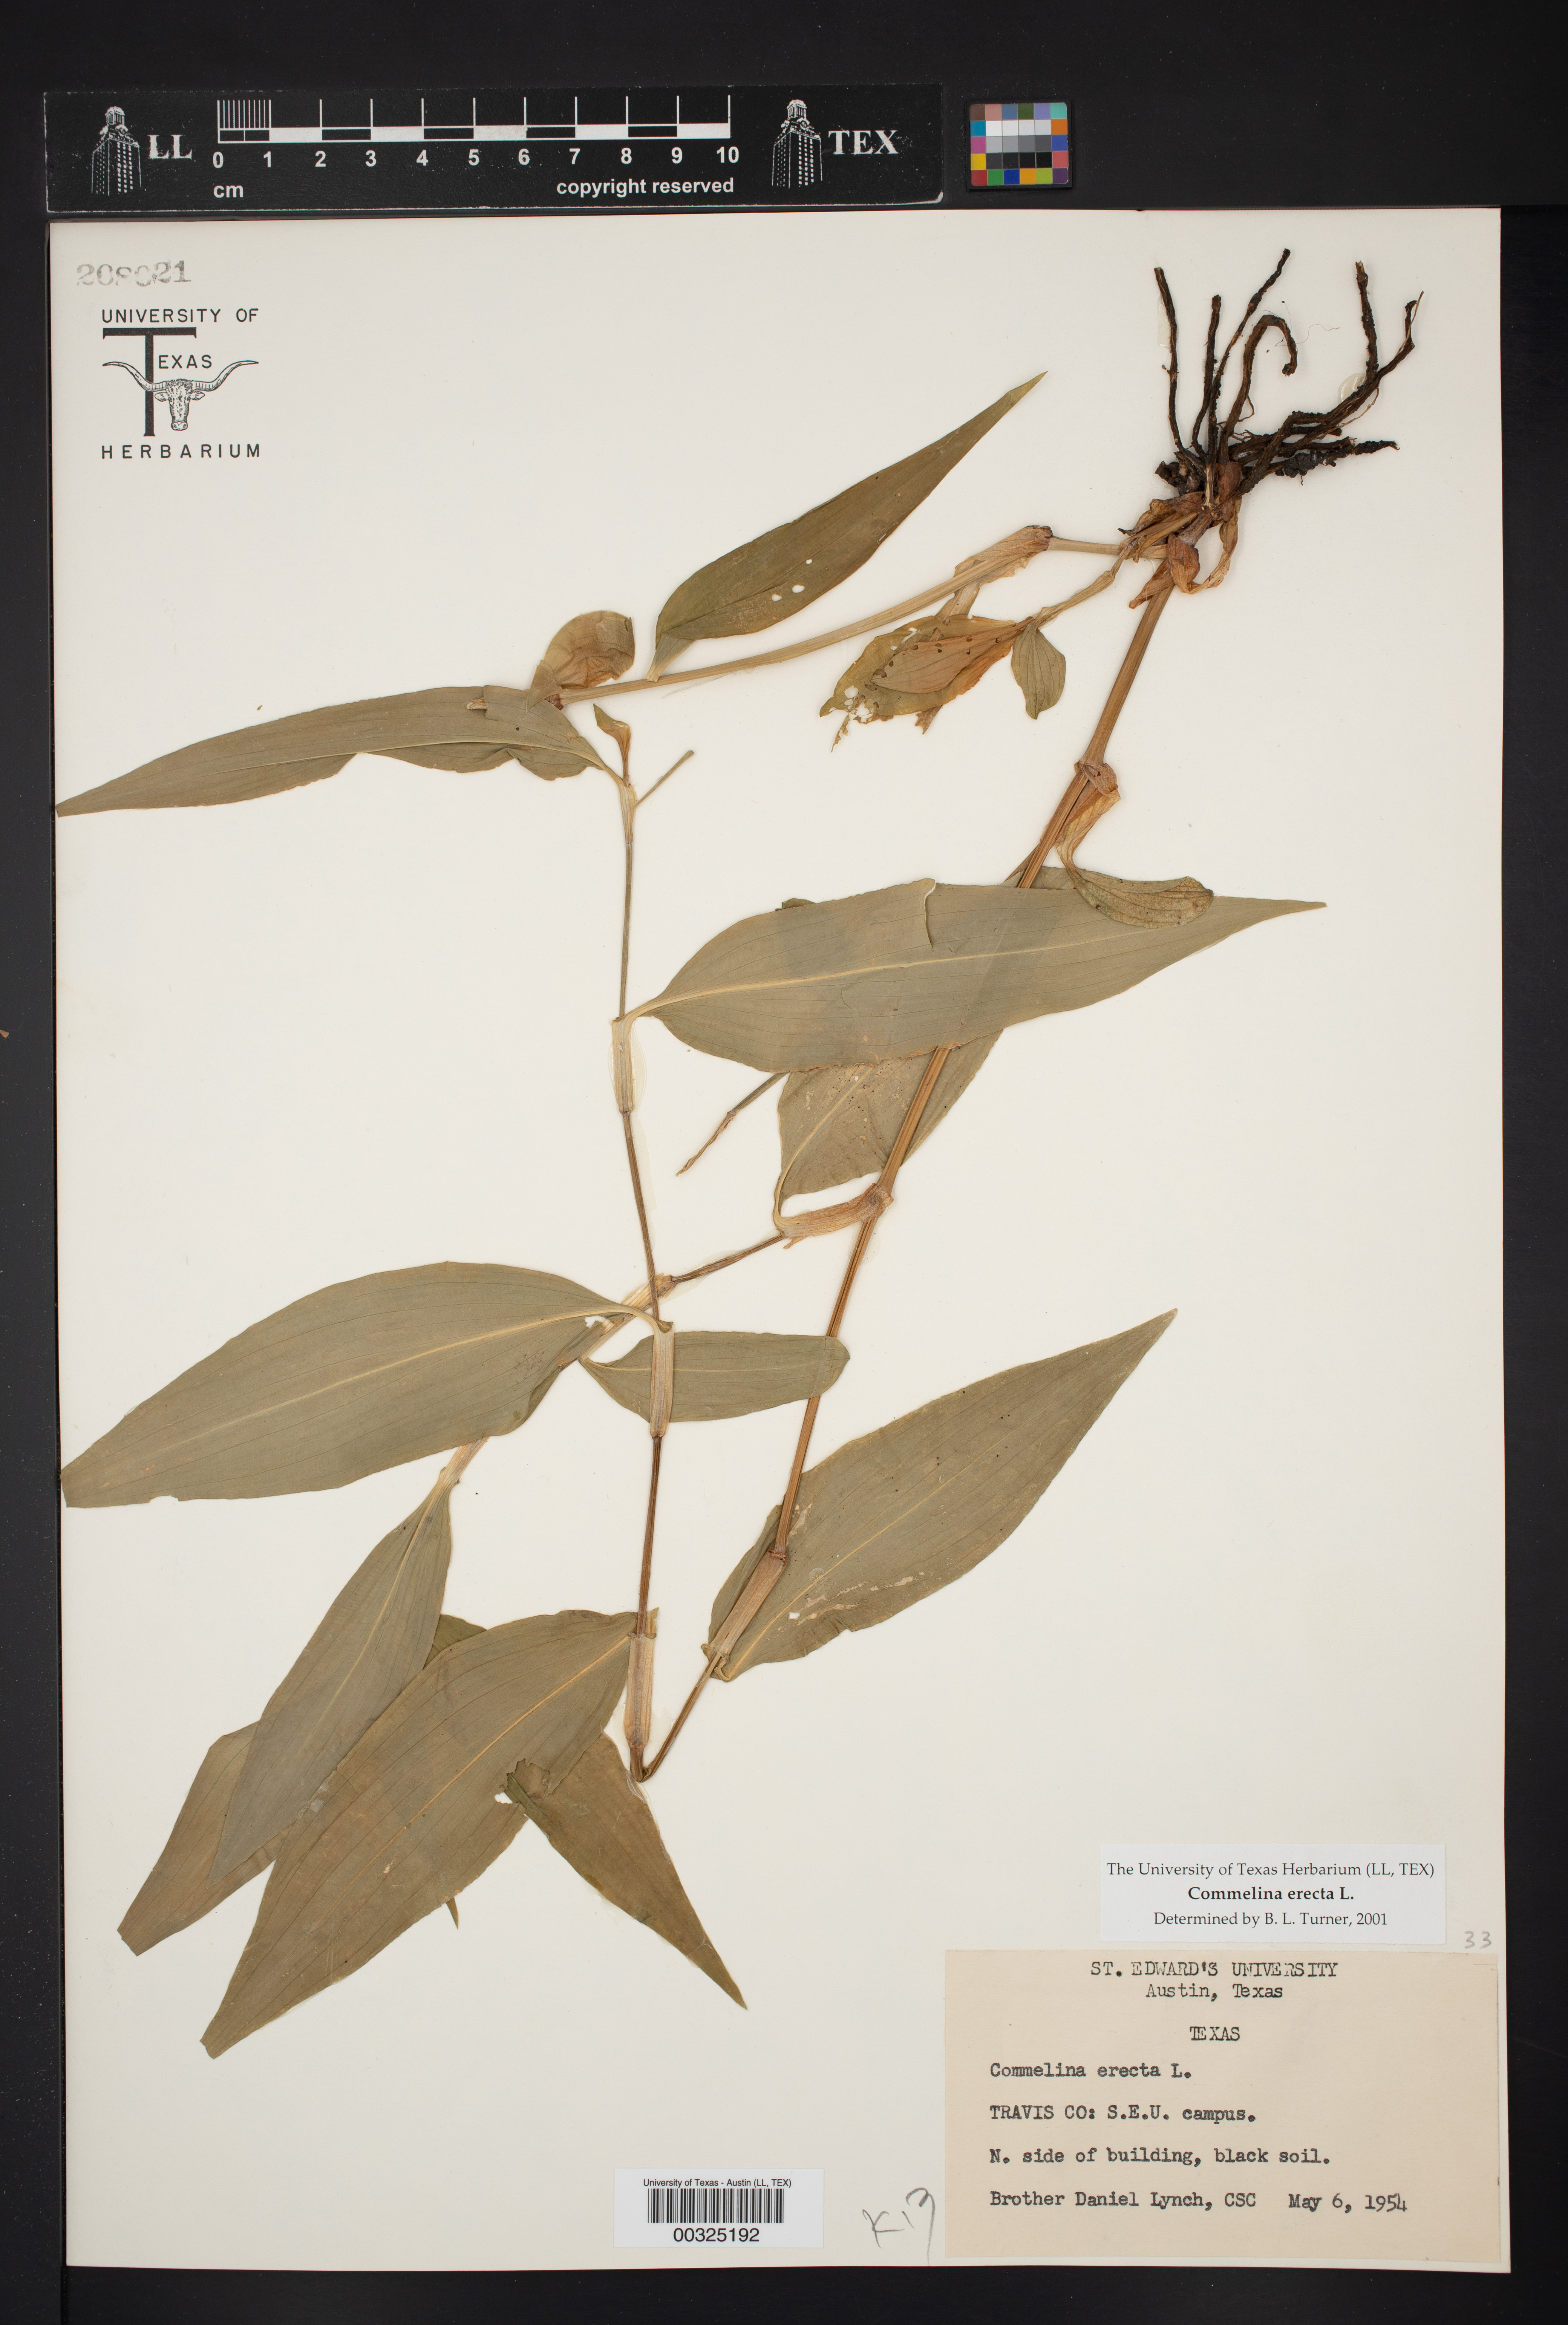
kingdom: Plantae
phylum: Tracheophyta
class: Liliopsida
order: Commelinales
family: Commelinaceae
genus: Commelina
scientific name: Commelina erecta
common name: Blousel blommetjie
